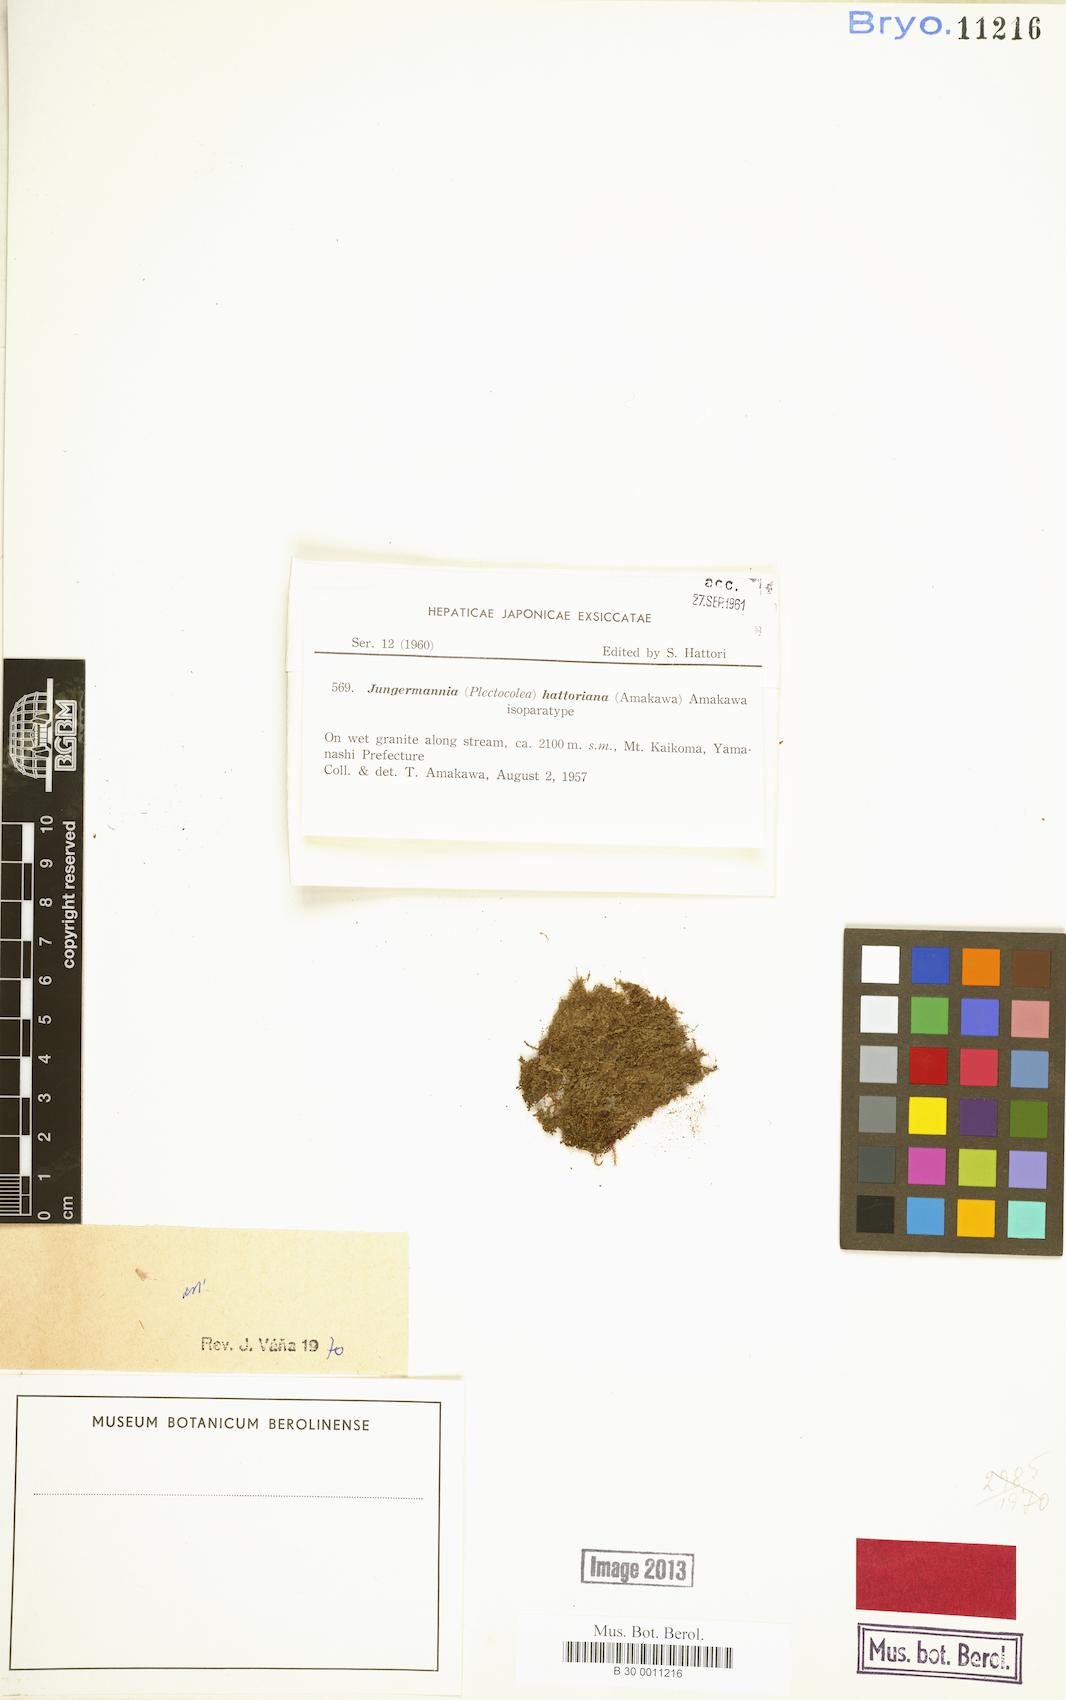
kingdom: Plantae
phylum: Marchantiophyta
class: Jungermanniopsida
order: Jungermanniales
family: Solenostomataceae
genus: Solenostoma
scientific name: Solenostoma hattorianum
